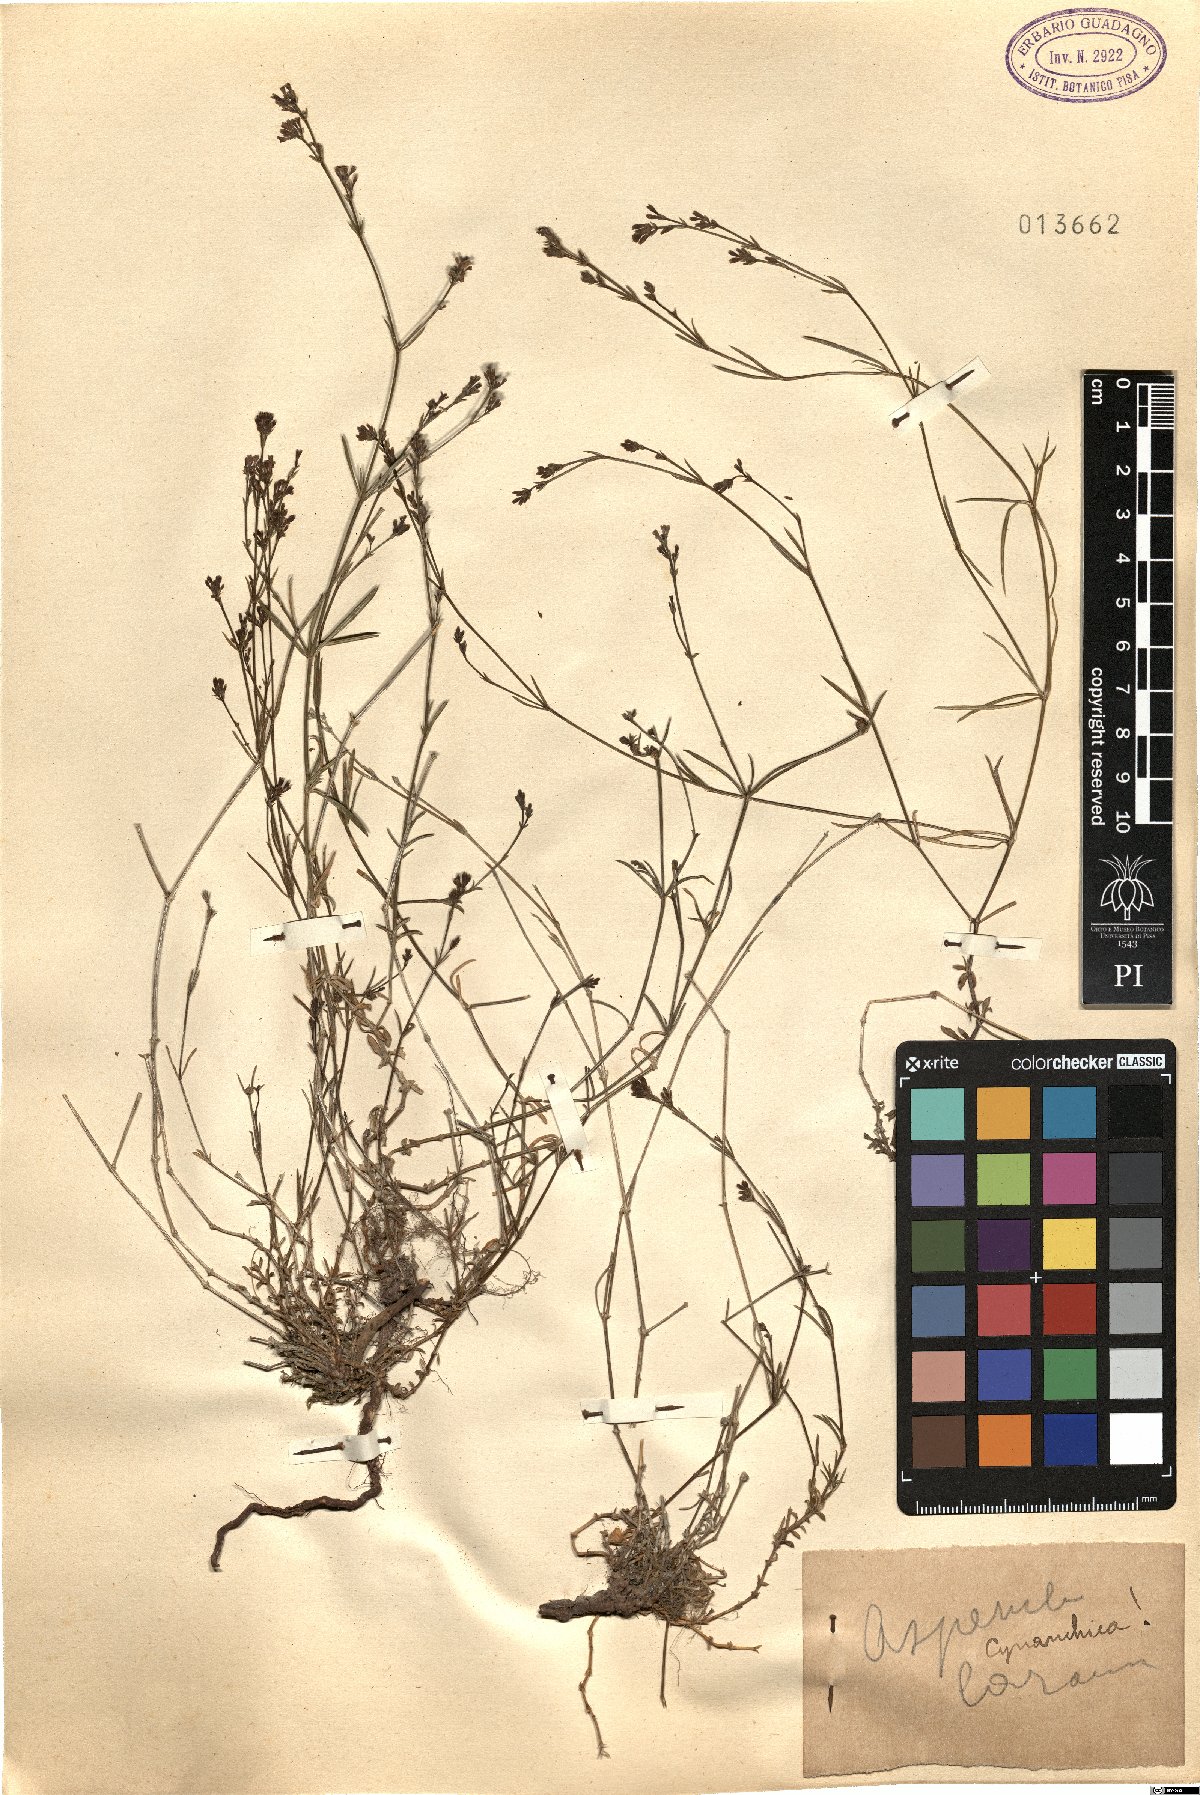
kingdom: Plantae
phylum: Tracheophyta
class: Magnoliopsida
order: Gentianales
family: Rubiaceae
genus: Cynanchica
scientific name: Cynanchica pyrenaica
